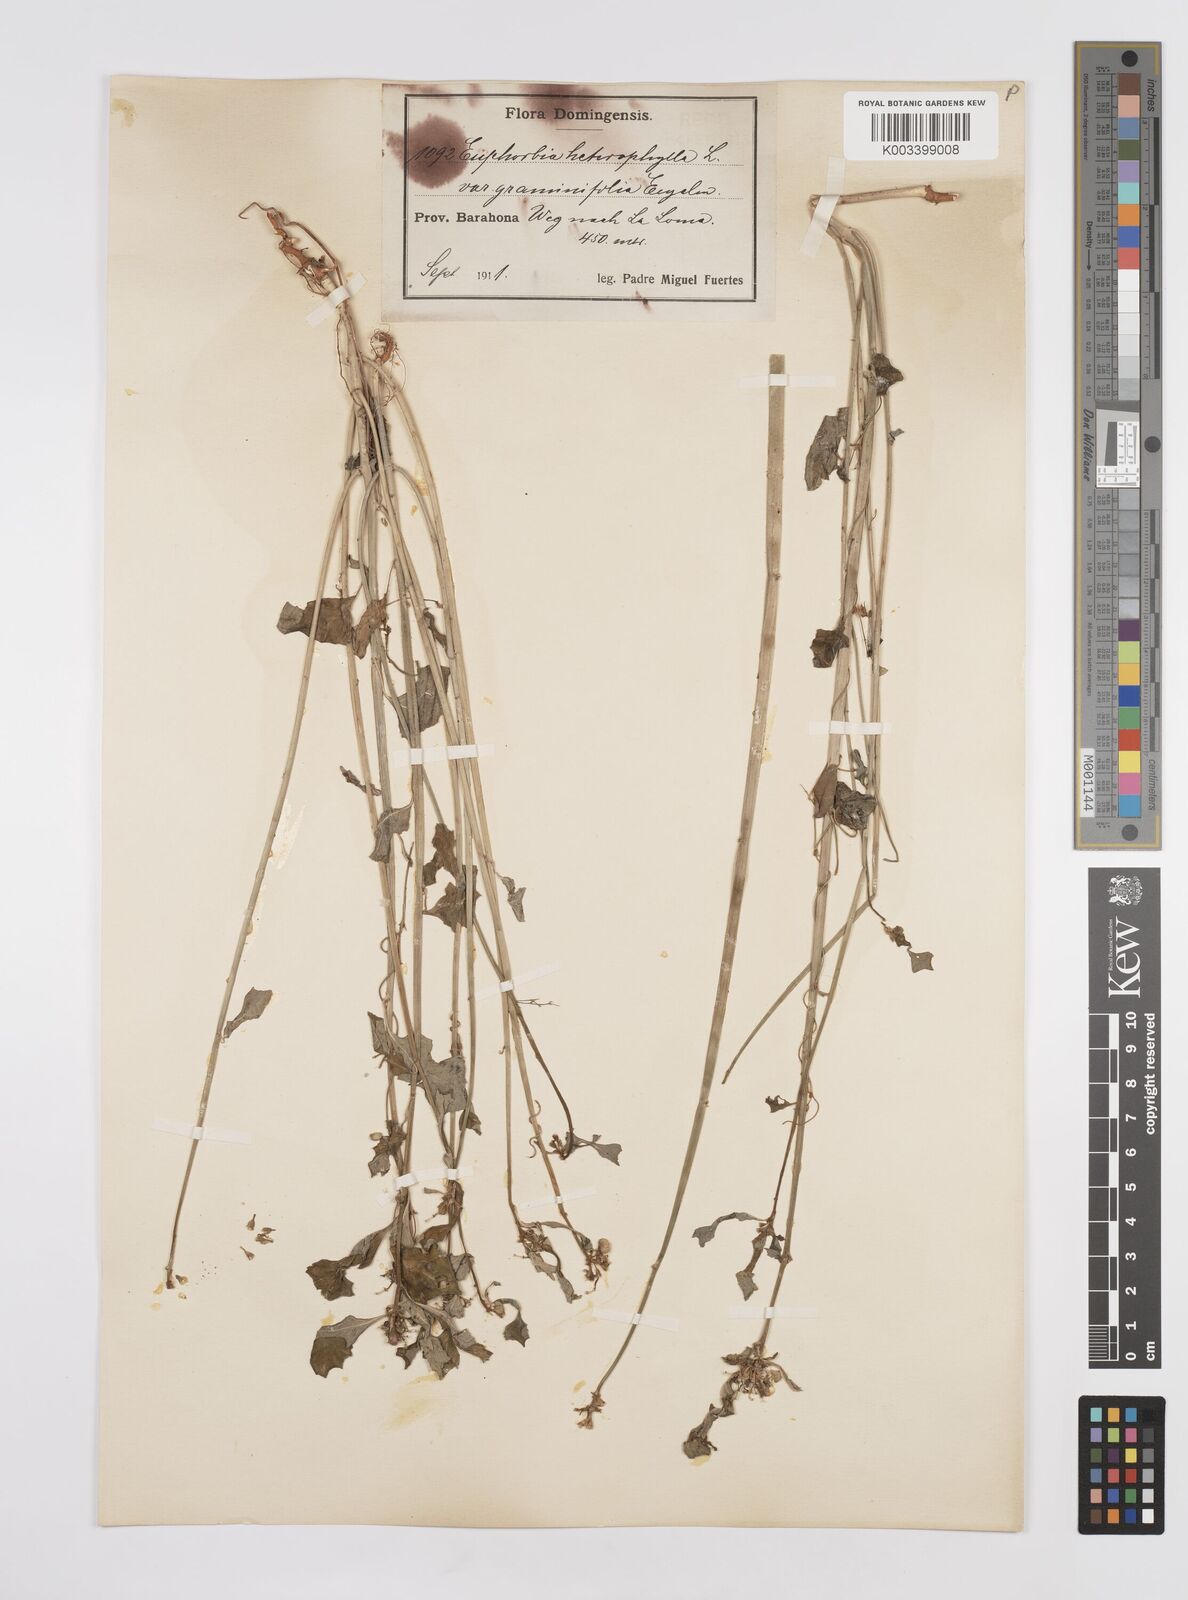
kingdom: Plantae
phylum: Tracheophyta
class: Magnoliopsida
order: Malpighiales
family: Euphorbiaceae
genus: Euphorbia
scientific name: Euphorbia heterophylla
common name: Mexican fireplant
